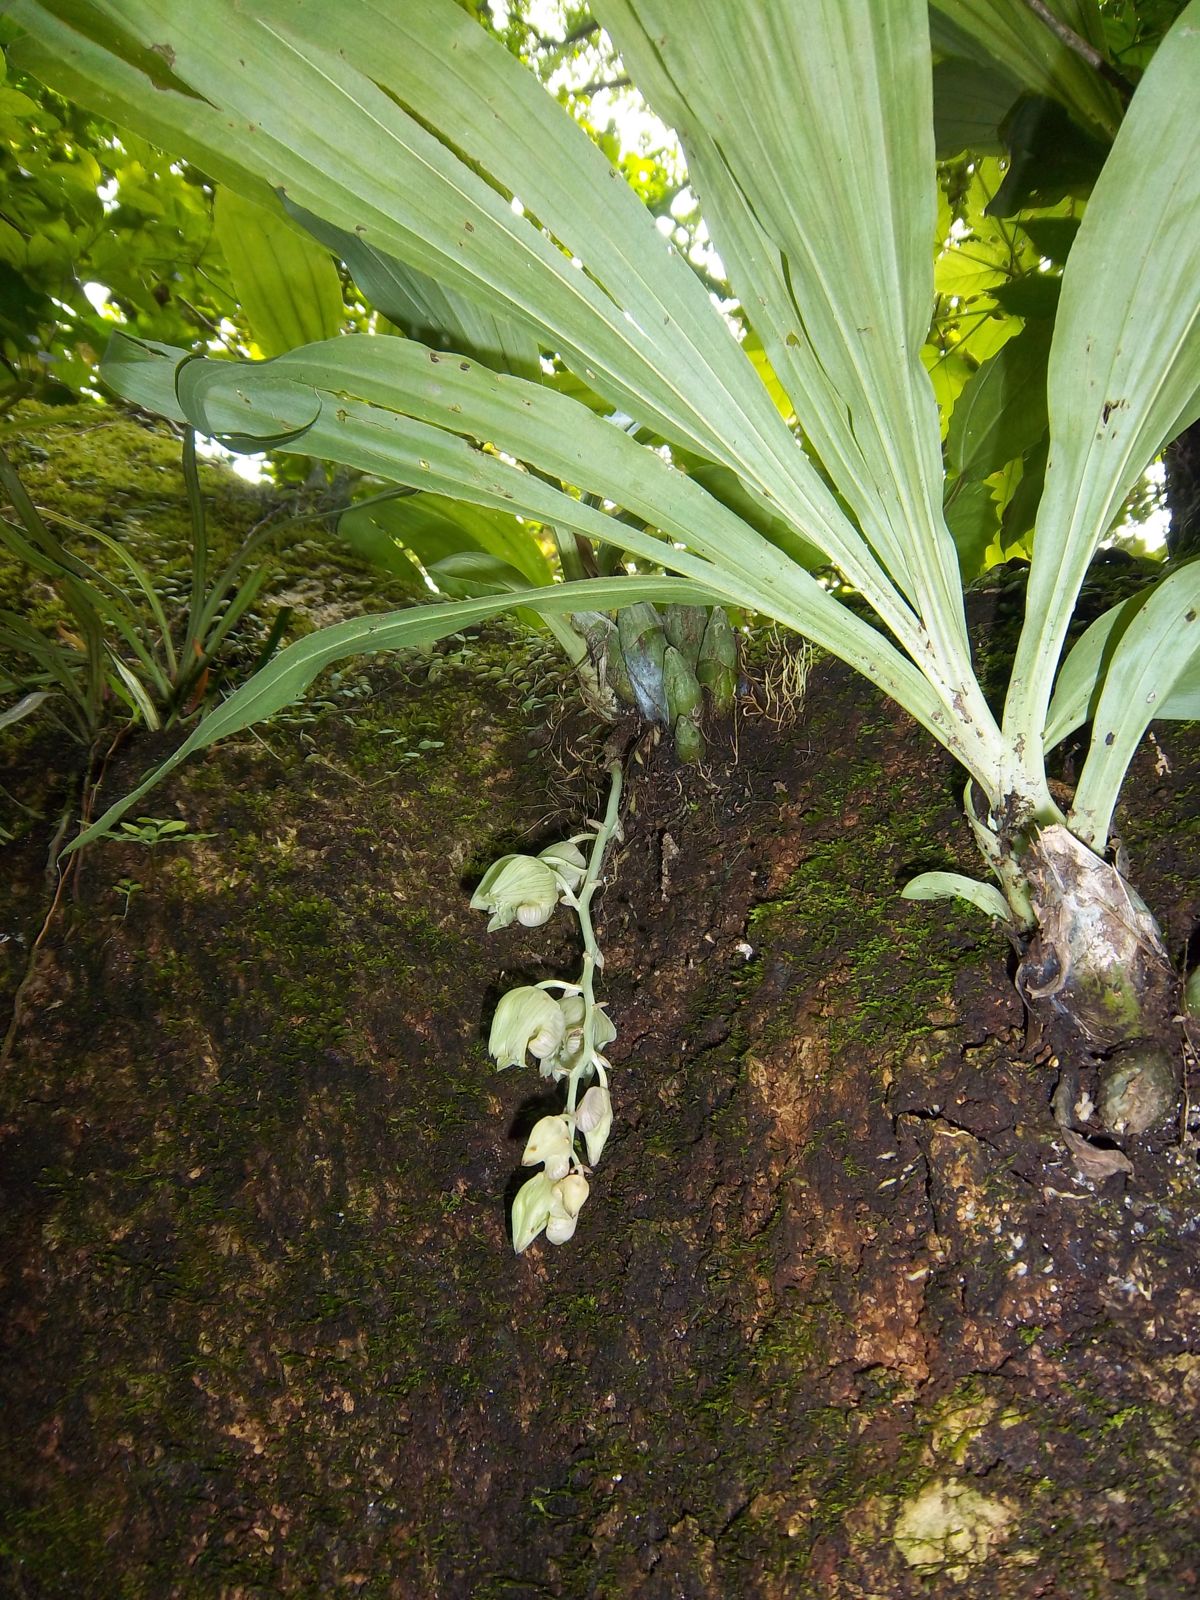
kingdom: Plantae
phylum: Tracheophyta
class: Liliopsida
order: Asparagales
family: Orchidaceae
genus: Clowesia
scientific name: Clowesia russelliana
